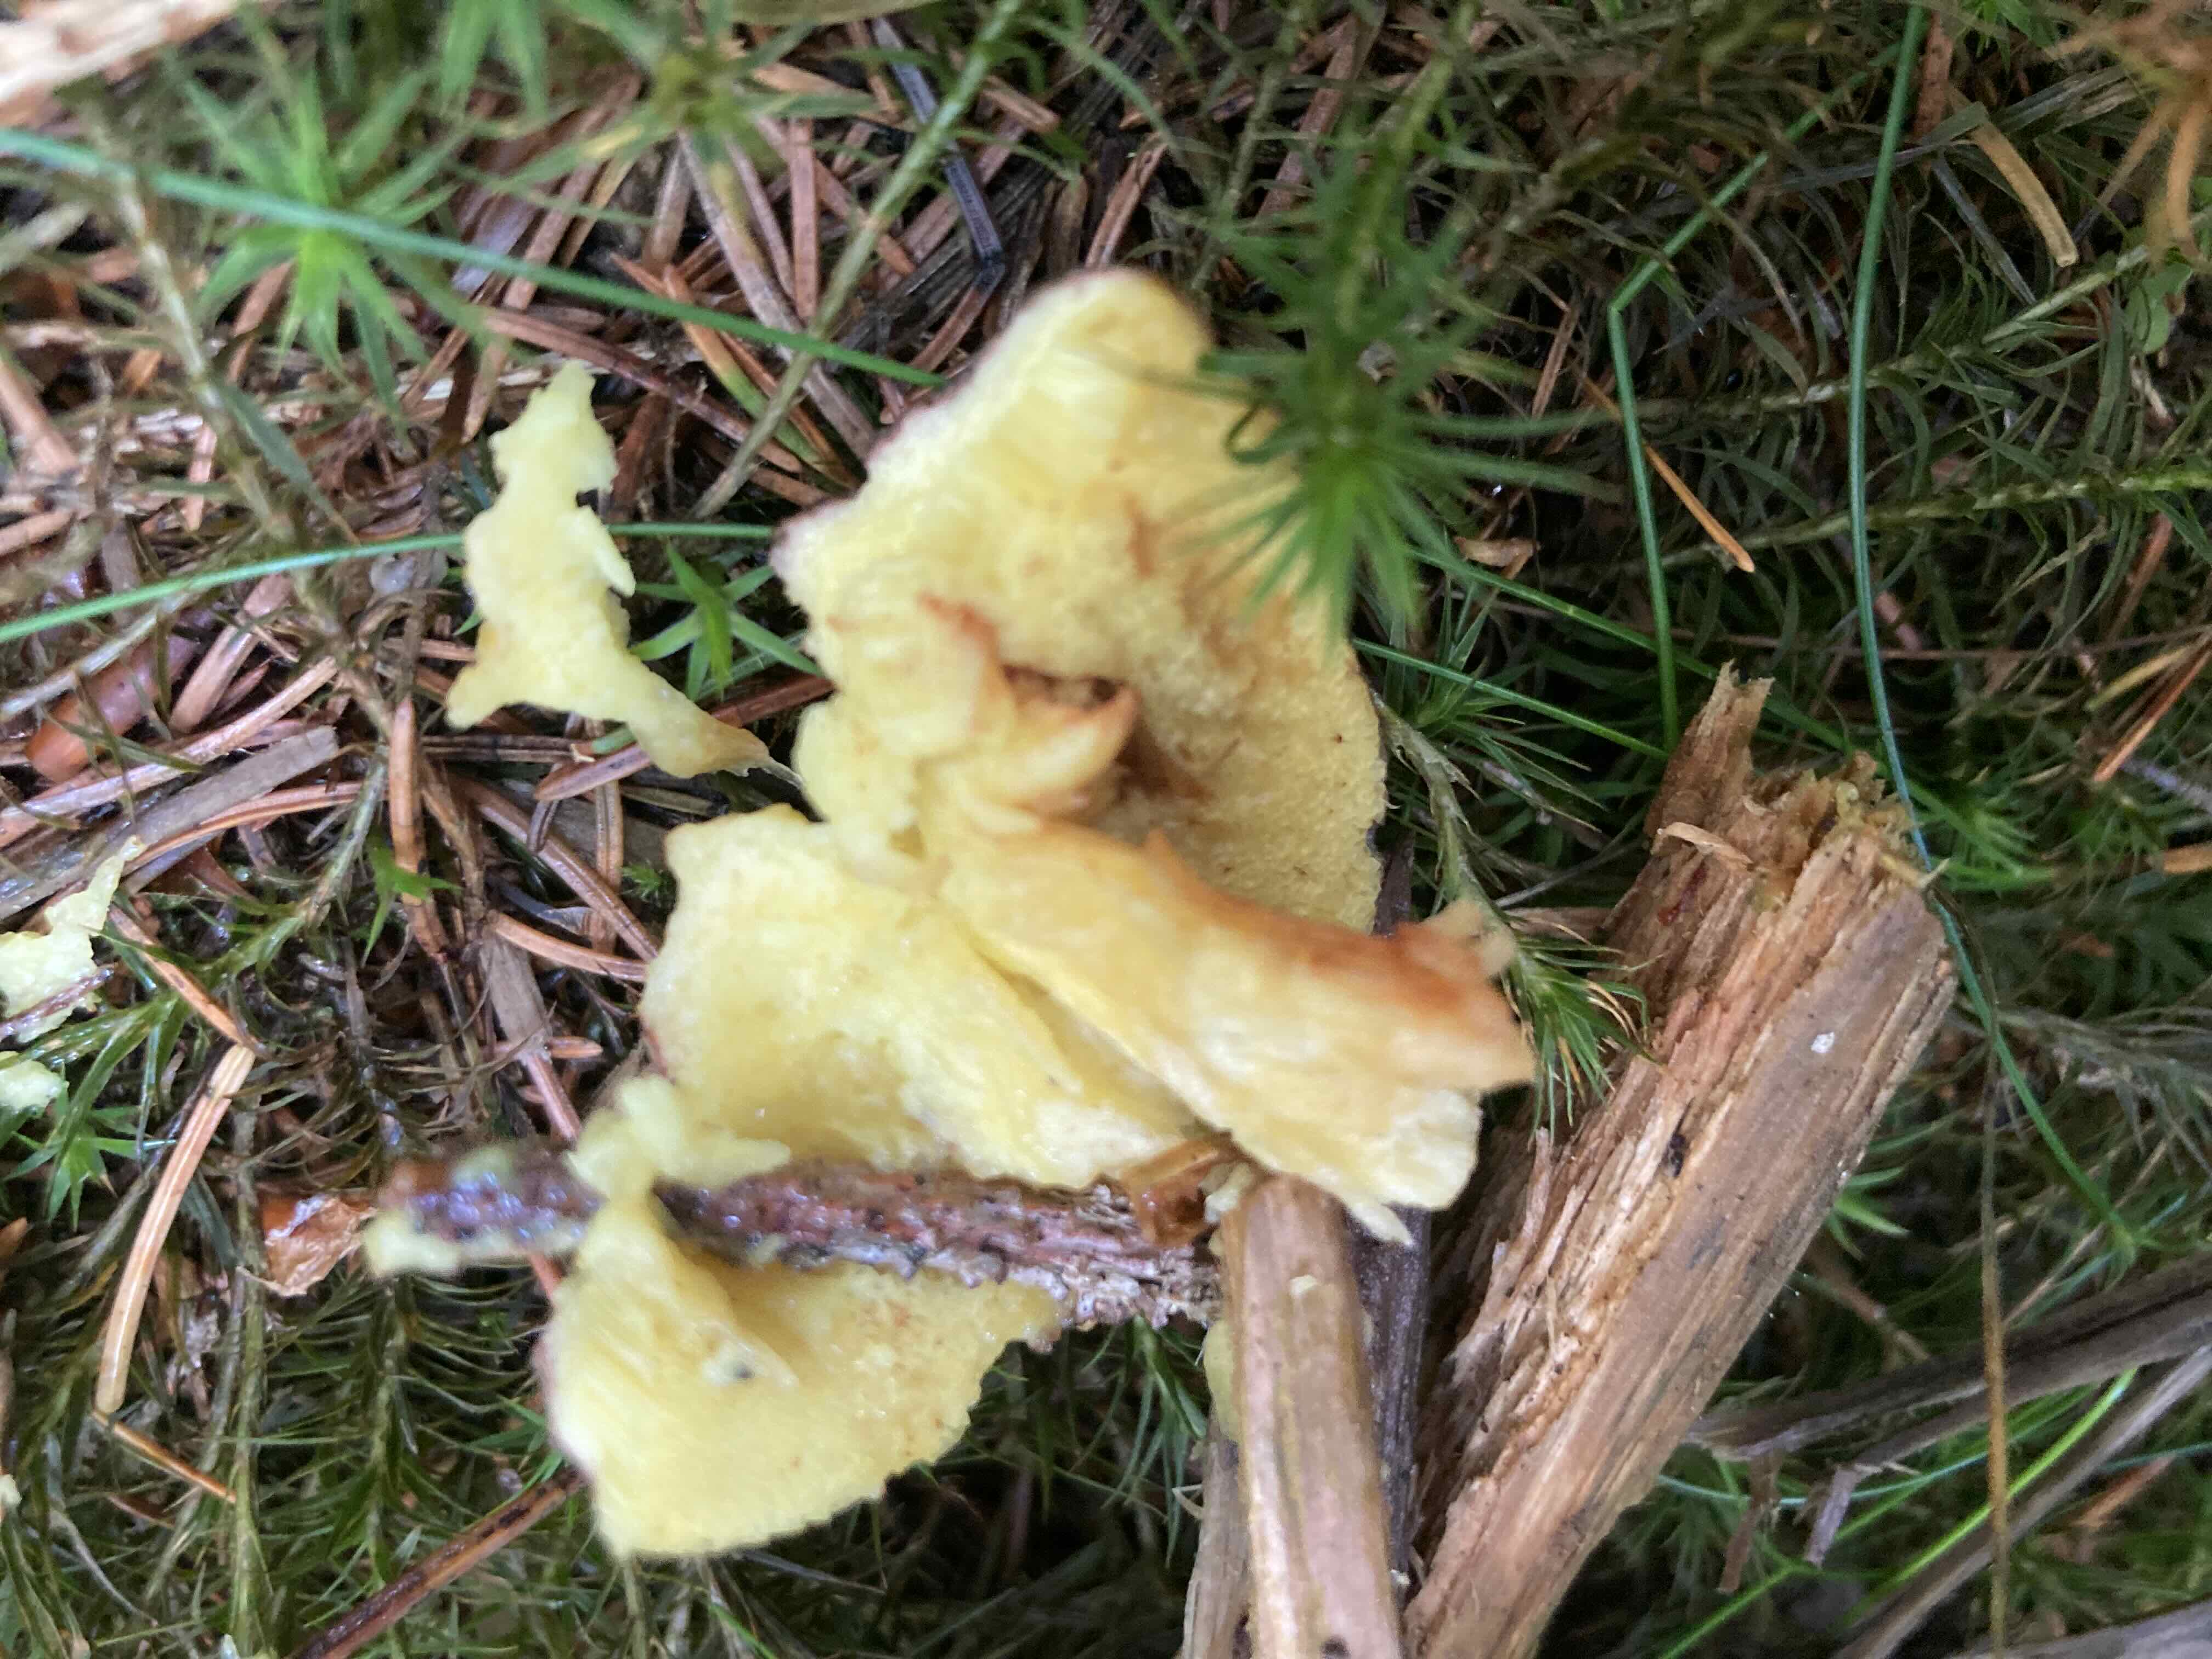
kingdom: Fungi
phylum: Basidiomycota
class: Agaricomycetes
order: Boletales
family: Boletaceae
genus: Xerocomellus
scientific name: Xerocomellus chrysenteron
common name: rødsprukken rørhat
